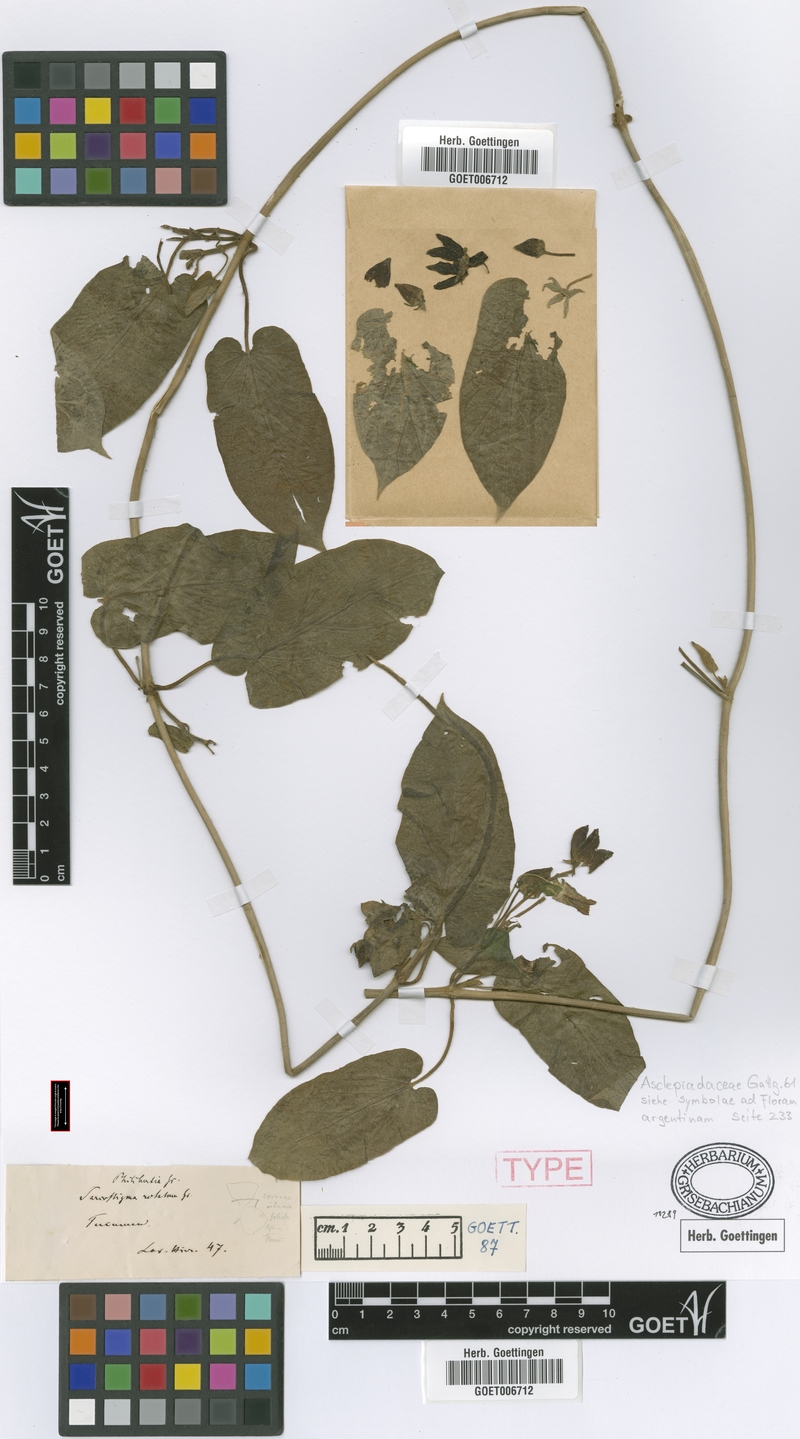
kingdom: Plantae
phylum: Tracheophyta
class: Magnoliopsida
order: Gentianales
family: Apocynaceae
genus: Gonolobus
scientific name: Gonolobus rostratus
